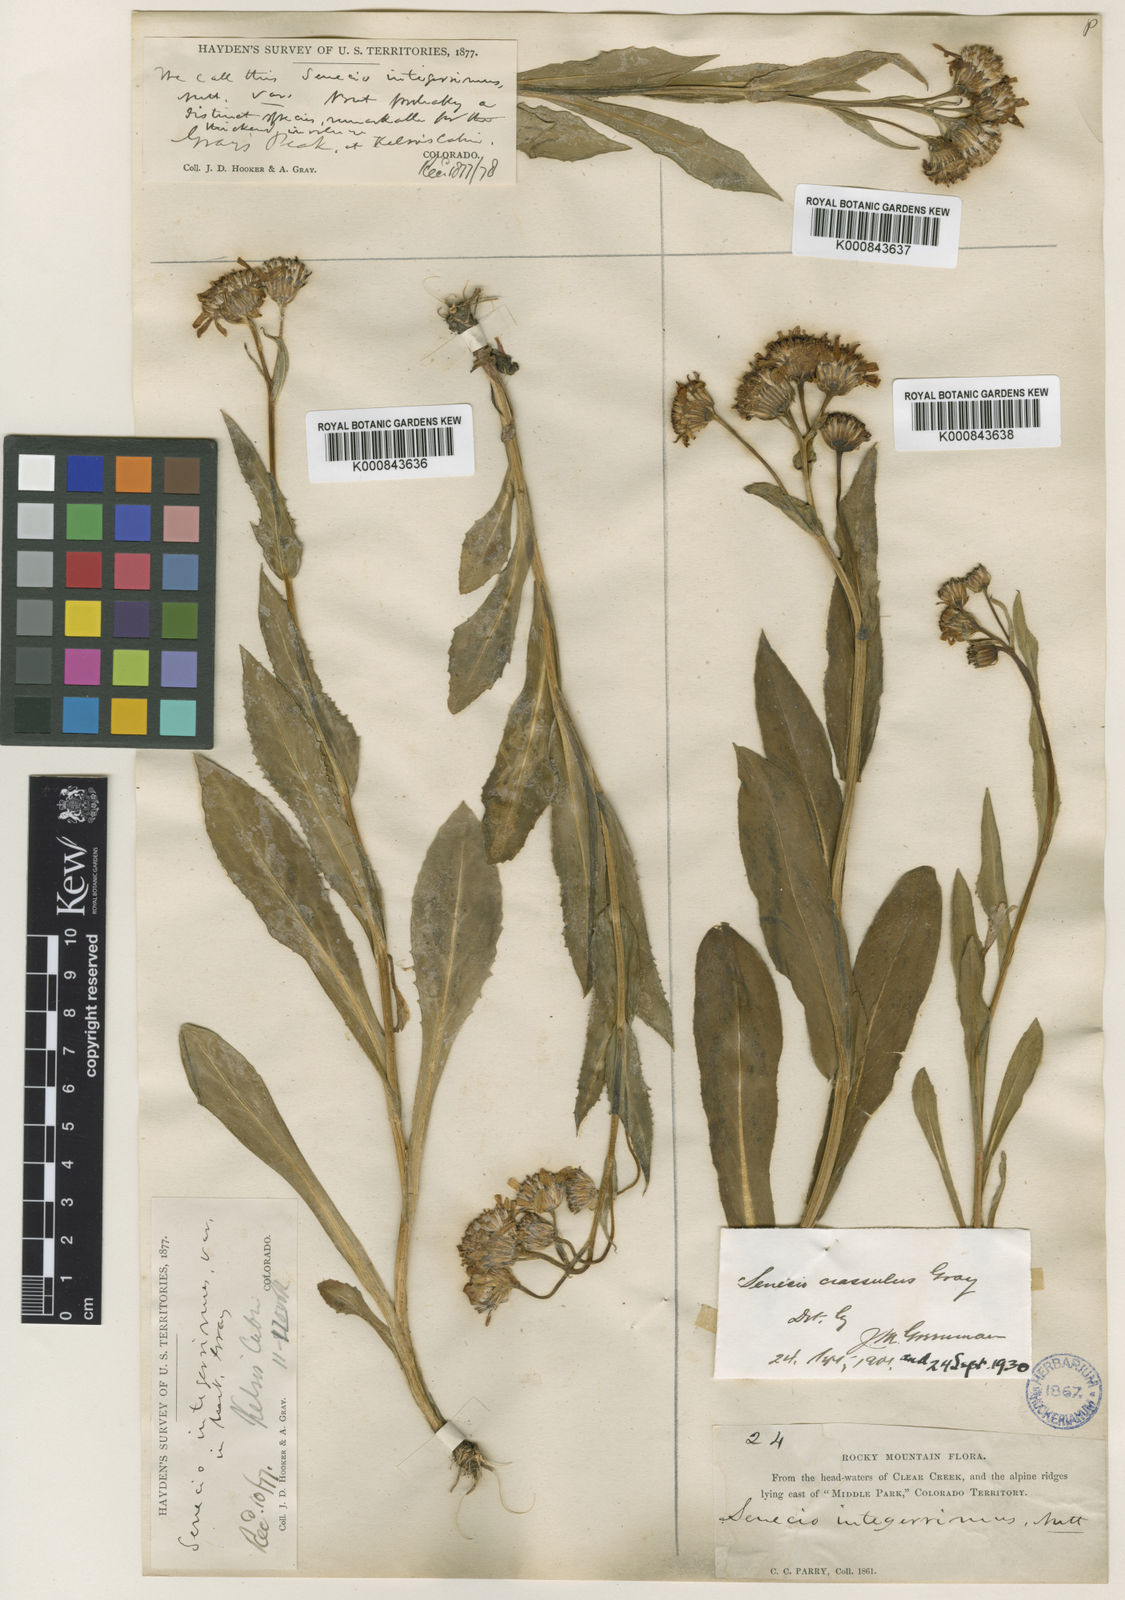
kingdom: Plantae
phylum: Tracheophyta
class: Magnoliopsida
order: Asterales
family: Asteraceae
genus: Senecio
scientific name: Senecio crassulus
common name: Mountain-meadow butterweed
